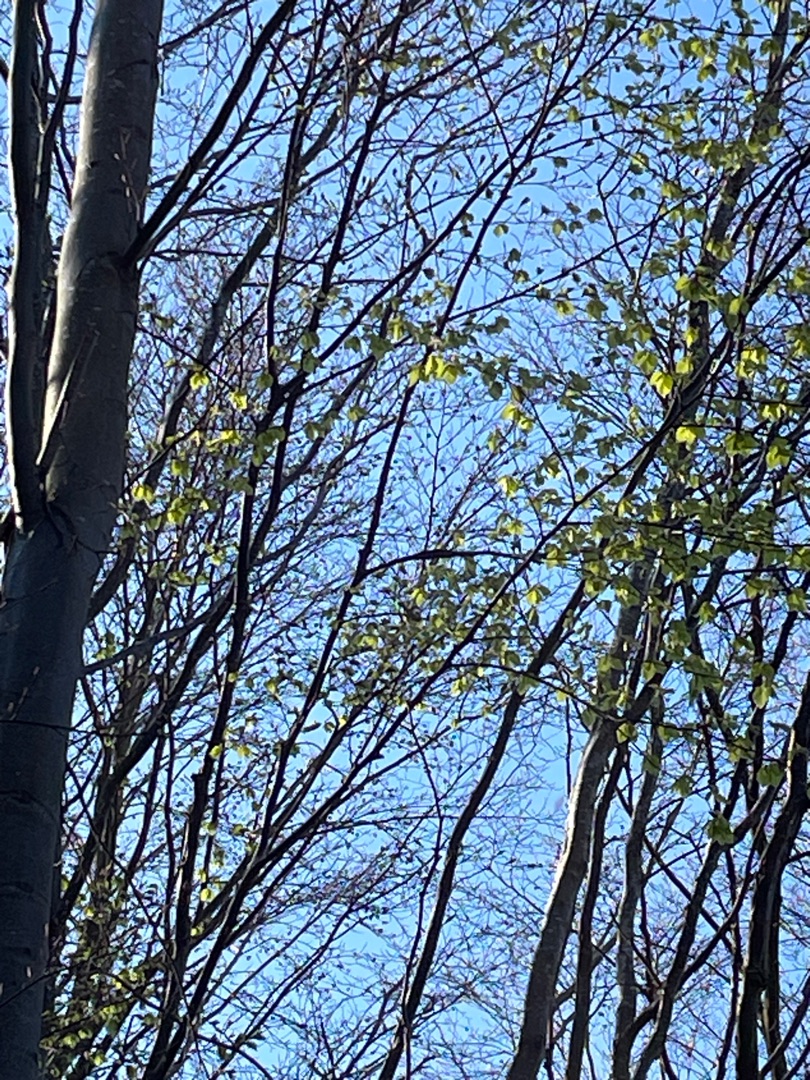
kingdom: Plantae
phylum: Tracheophyta
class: Magnoliopsida
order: Fagales
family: Fagaceae
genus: Fagus
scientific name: Fagus sylvatica
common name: Bøg
